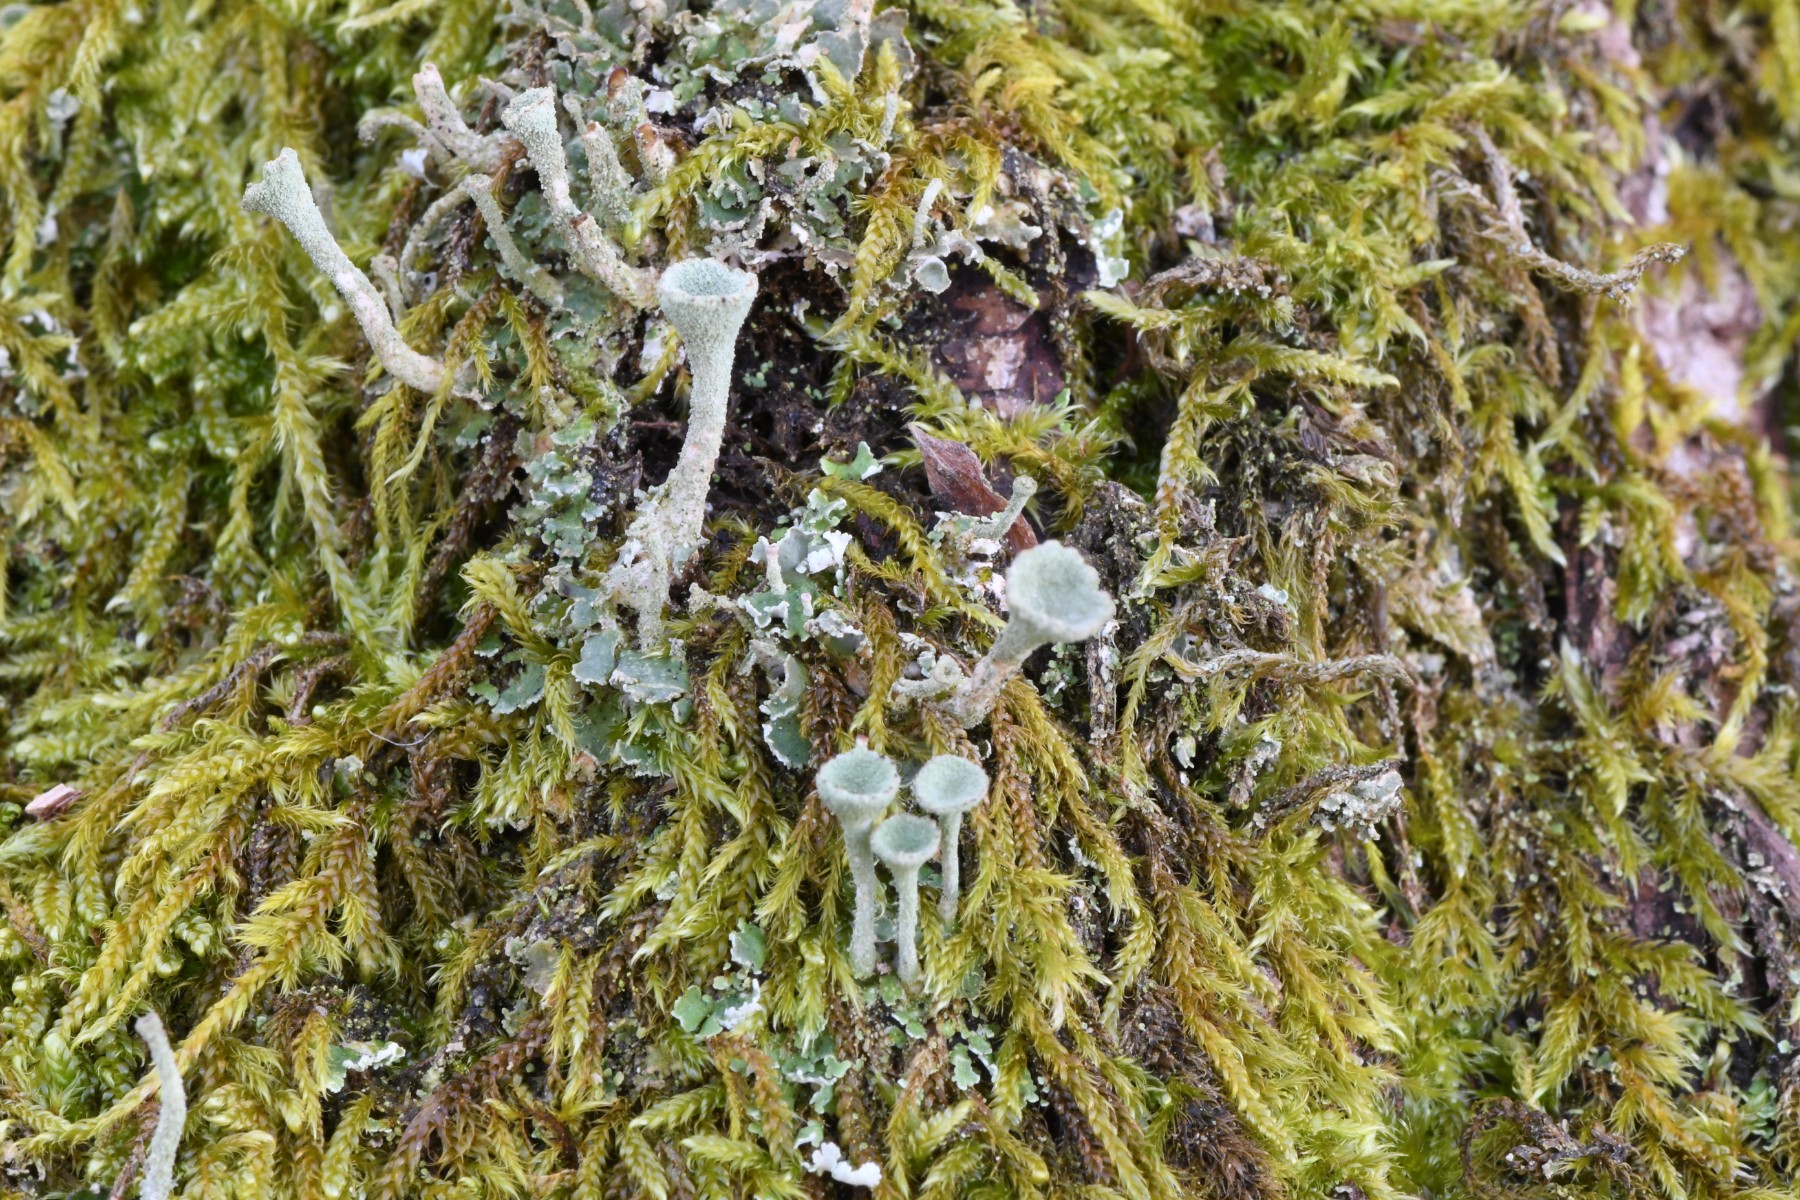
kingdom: Fungi
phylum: Ascomycota
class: Lecanoromycetes
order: Lecanorales
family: Cladoniaceae
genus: Cladonia
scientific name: Cladonia
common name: brungrøn bægerlav
